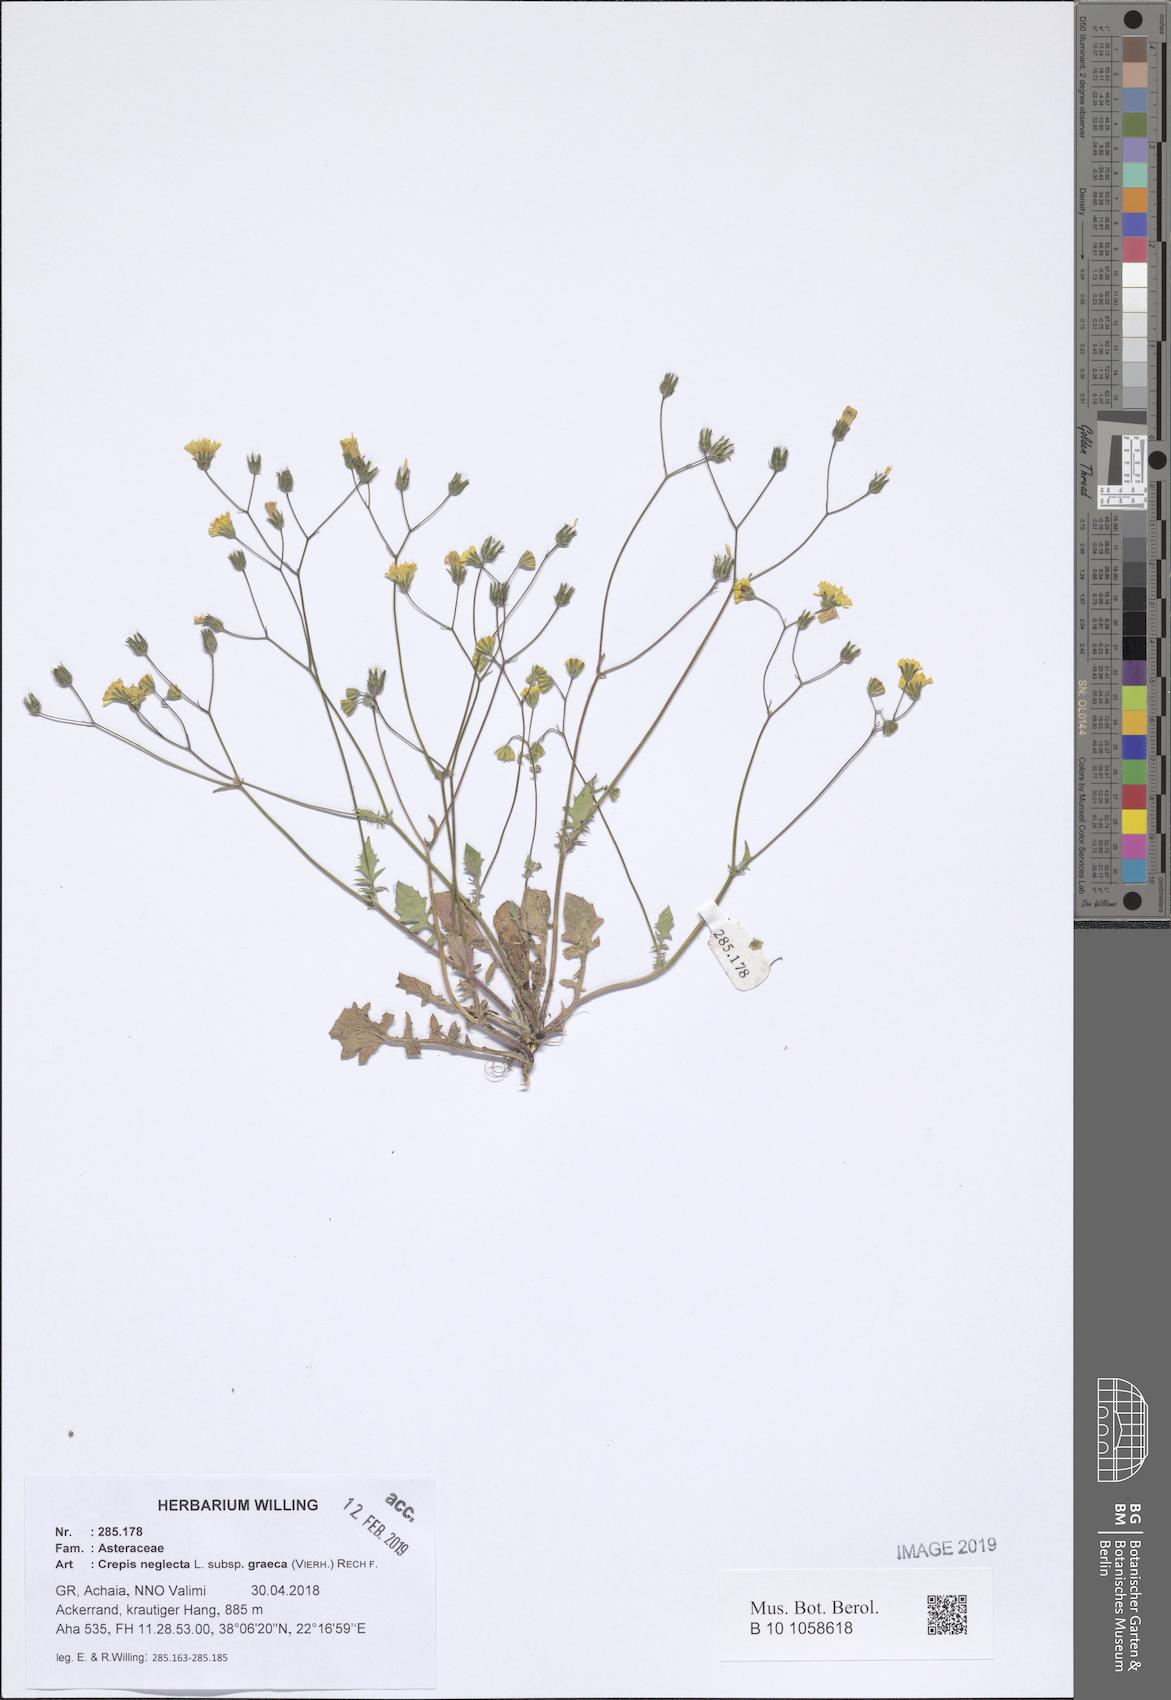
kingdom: Plantae
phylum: Tracheophyta
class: Magnoliopsida
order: Asterales
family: Asteraceae
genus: Crepis
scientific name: Crepis neglecta
